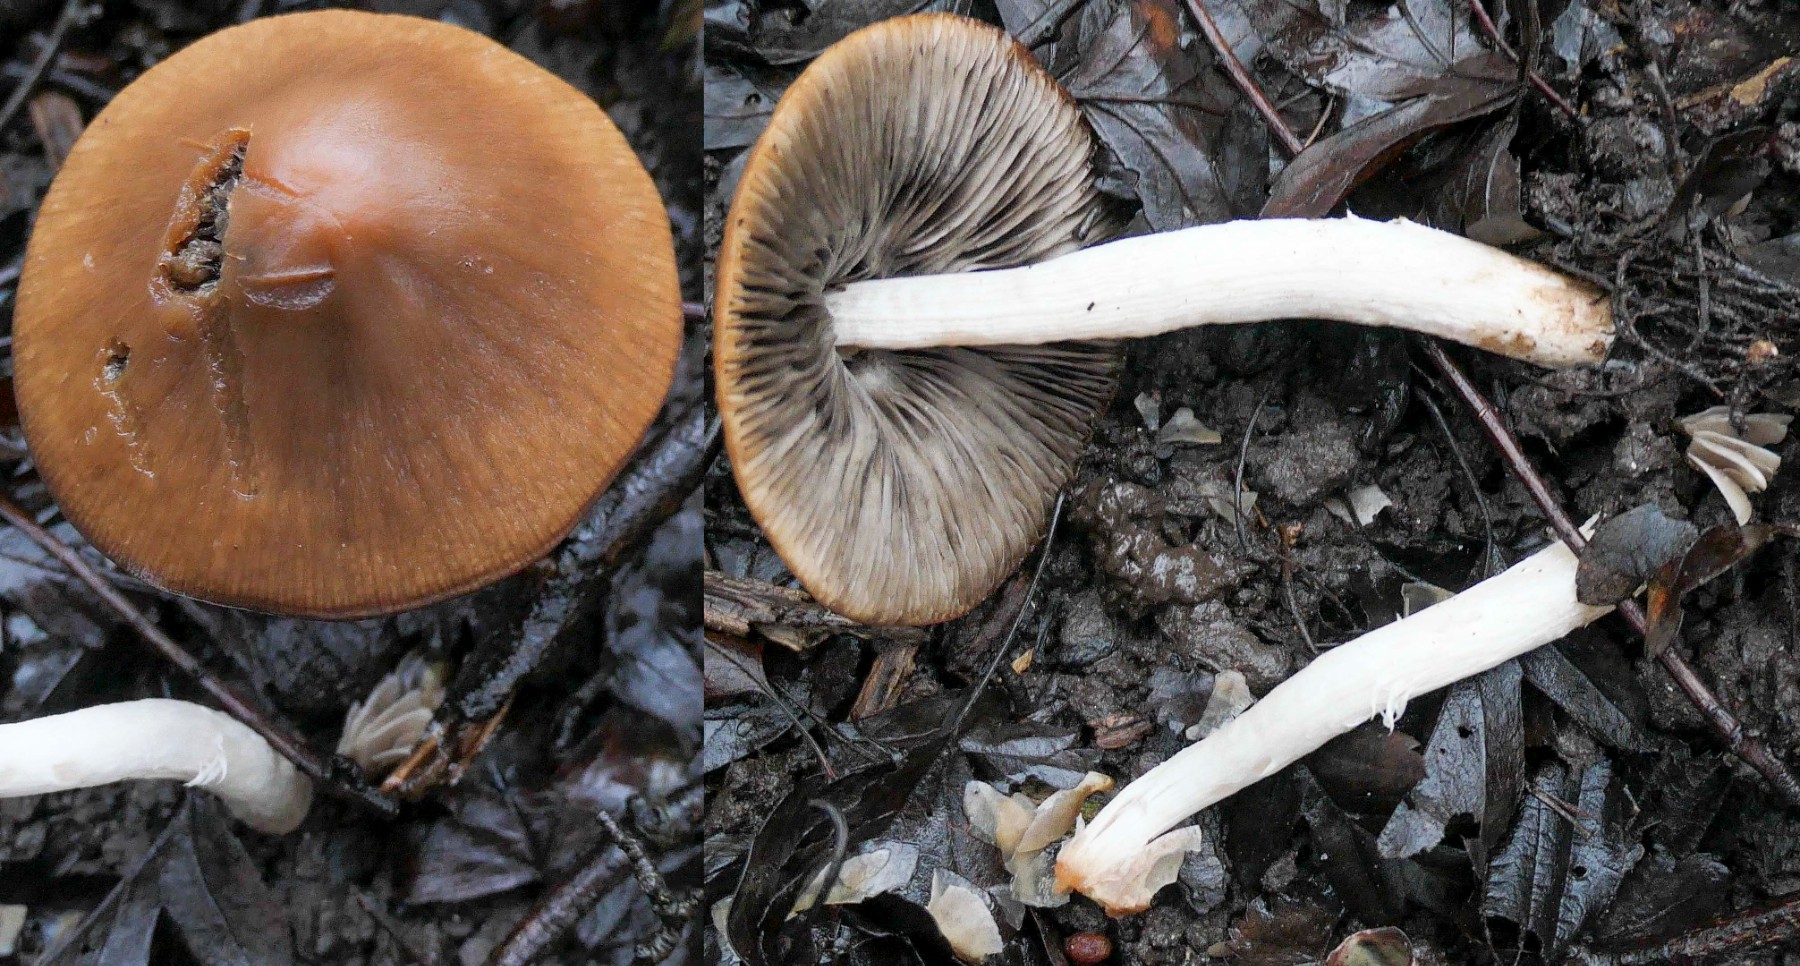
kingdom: Fungi
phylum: Basidiomycota
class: Agaricomycetes
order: Agaricales
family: Psathyrellaceae
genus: Psathyrella
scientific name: Psathyrella olympiana
